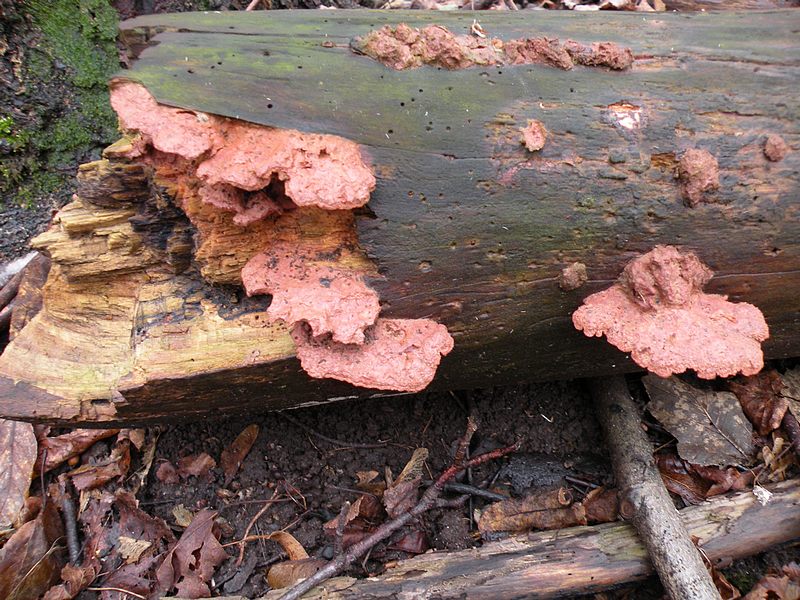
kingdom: Fungi
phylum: Basidiomycota
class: Agaricomycetes
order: Polyporales
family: Phanerochaetaceae
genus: Hapalopilus
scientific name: Hapalopilus rutilans
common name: rødlig okkerporesvamp
